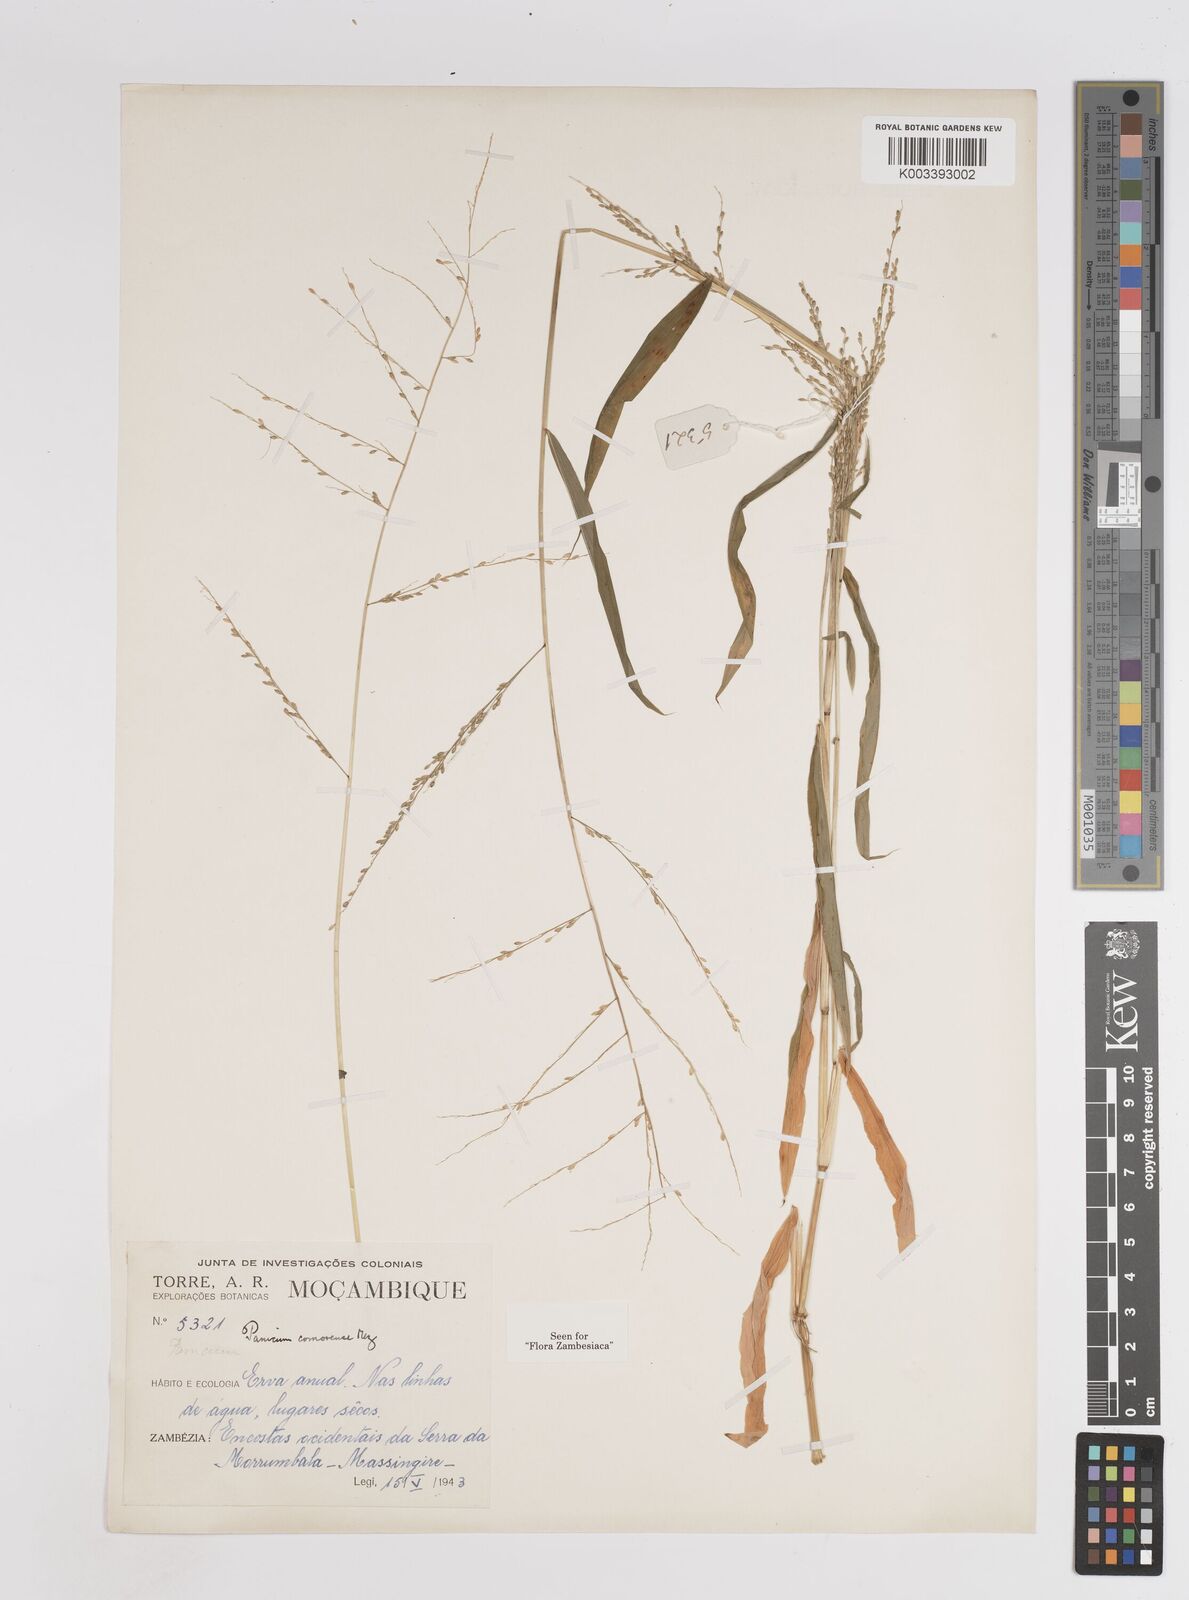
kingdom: Plantae
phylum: Tracheophyta
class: Liliopsida
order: Poales
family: Poaceae
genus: Panicum
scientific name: Panicum comorense
